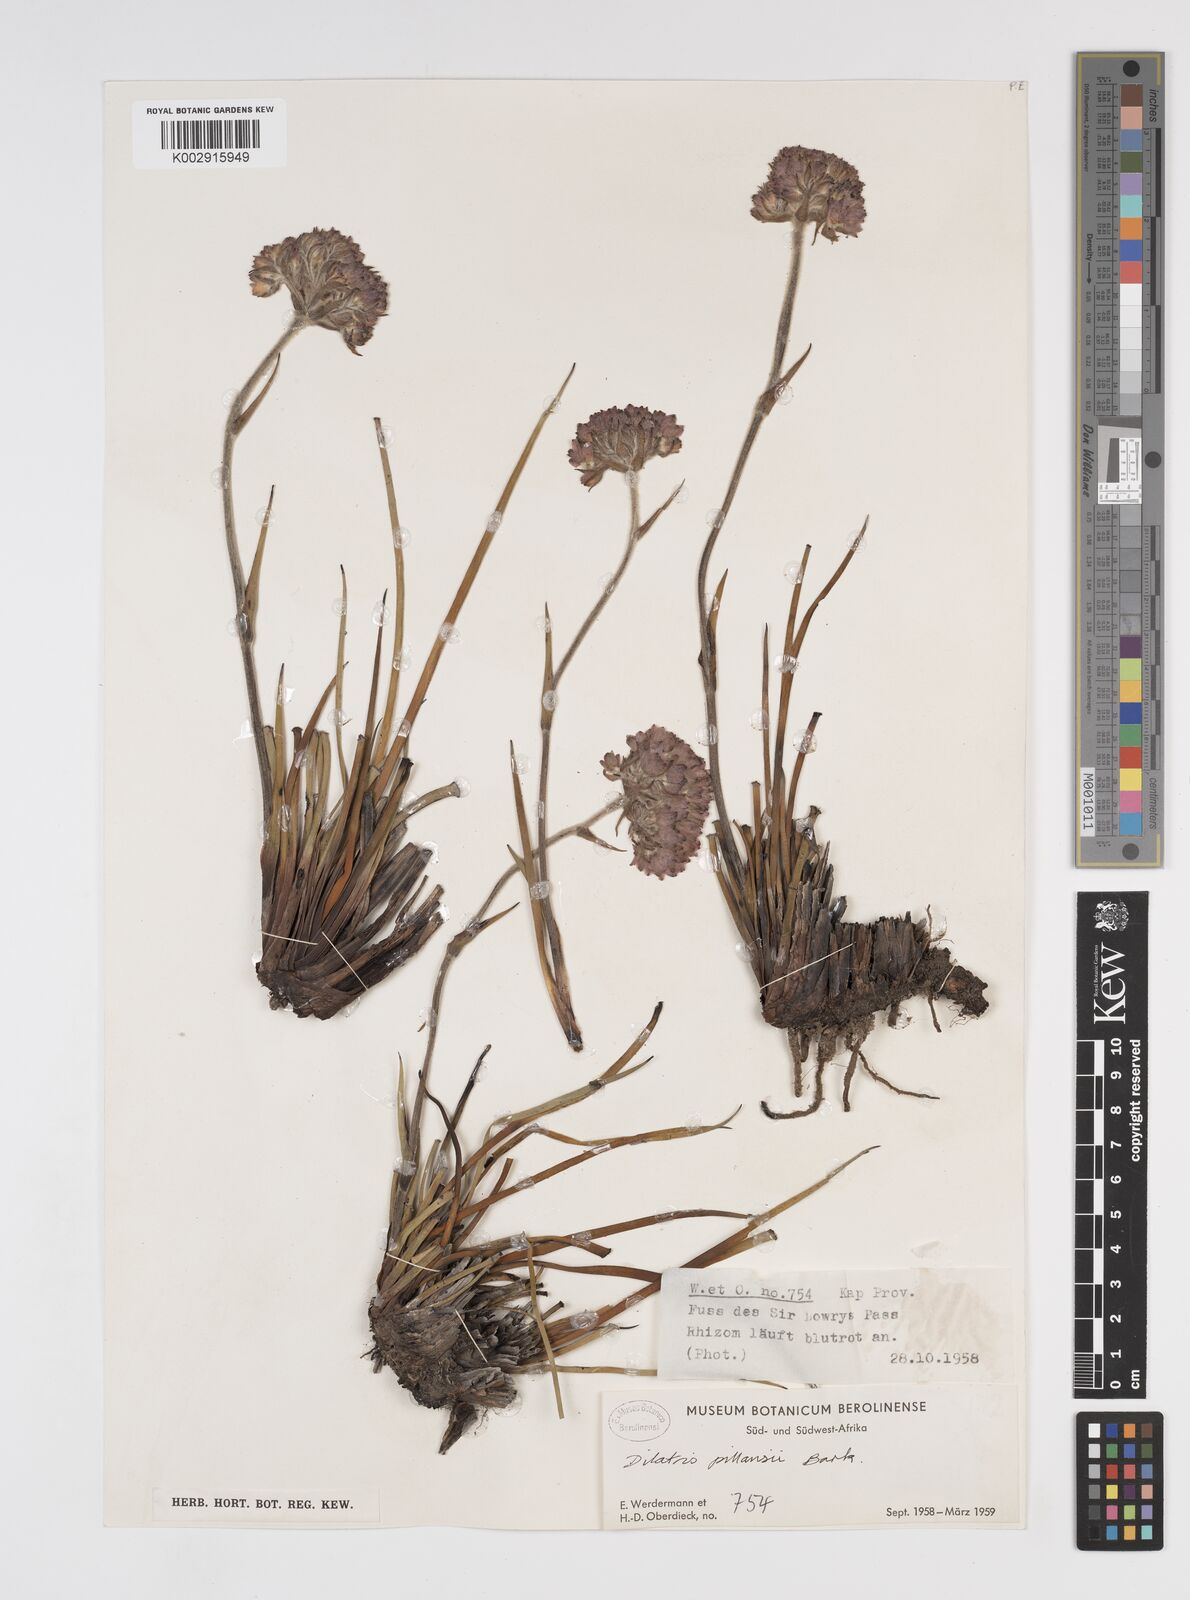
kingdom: Plantae
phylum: Tracheophyta
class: Liliopsida
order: Commelinales
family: Haemodoraceae
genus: Dilatris
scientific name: Dilatris pillansii
